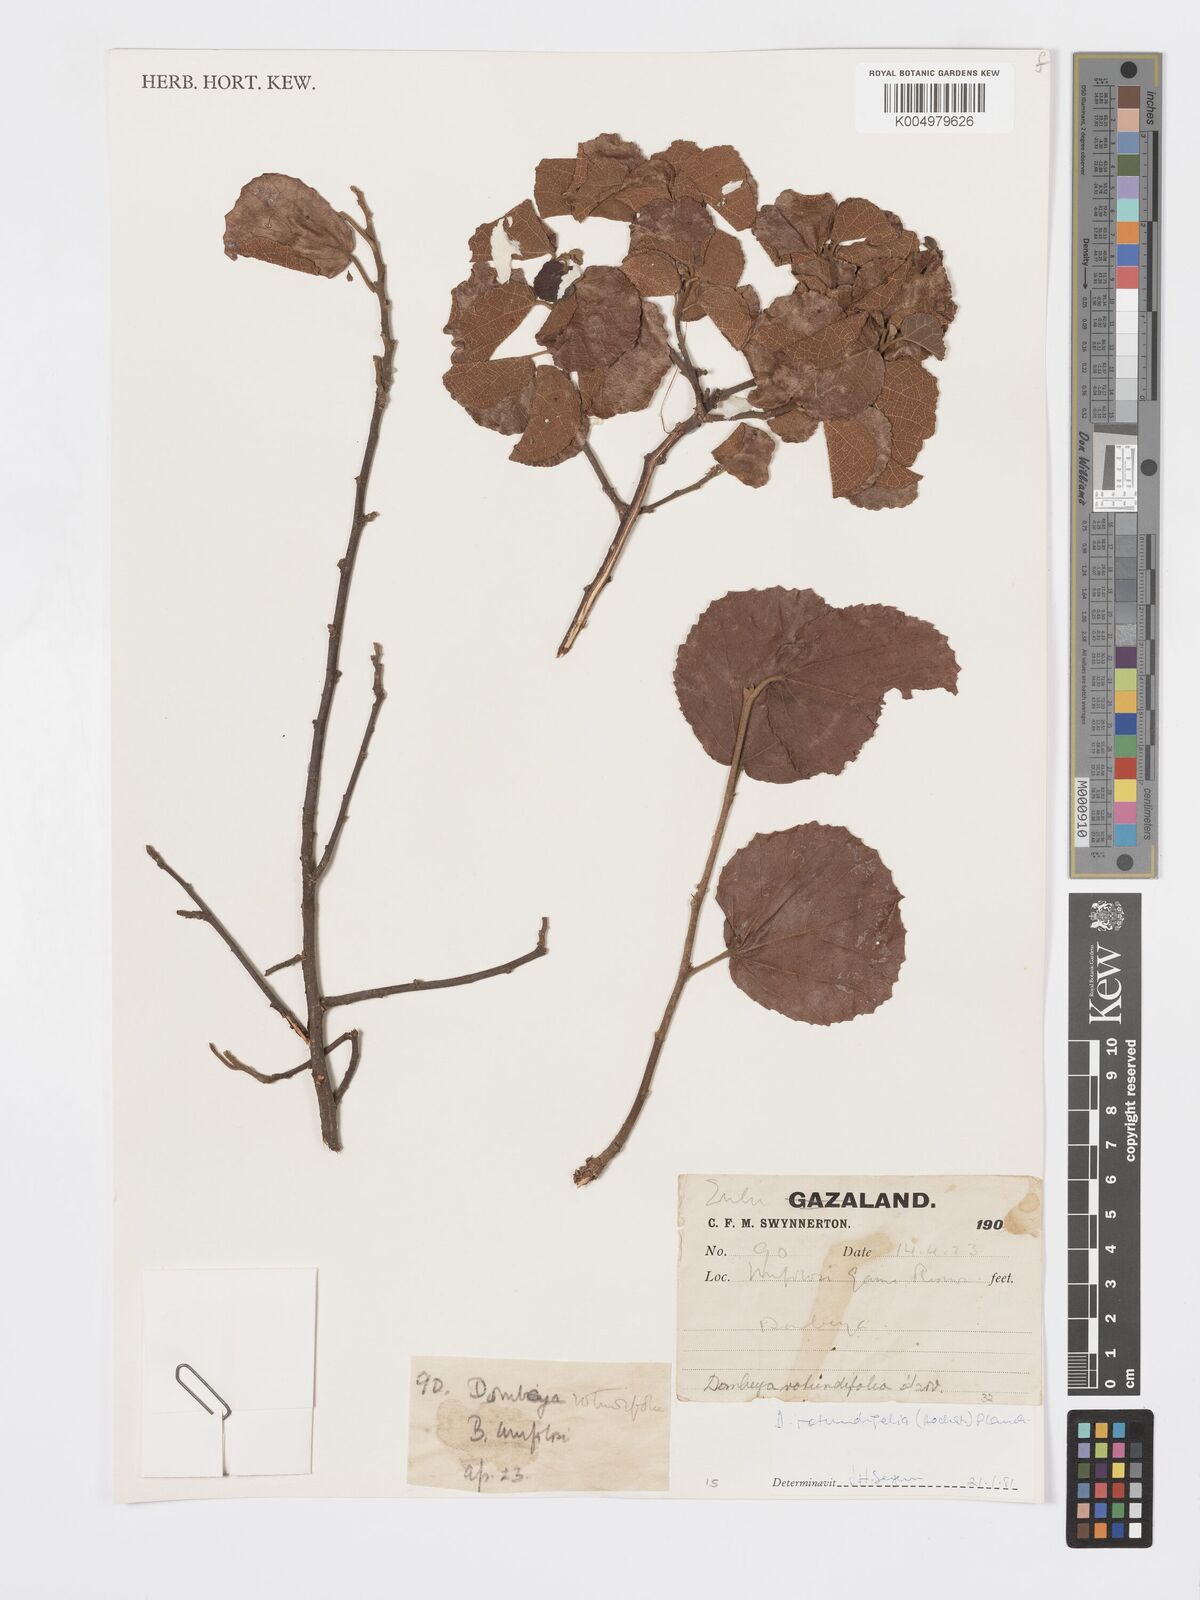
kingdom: Plantae
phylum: Tracheophyta
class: Magnoliopsida
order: Malvales
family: Malvaceae
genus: Dombeya
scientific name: Dombeya rotundifolia
